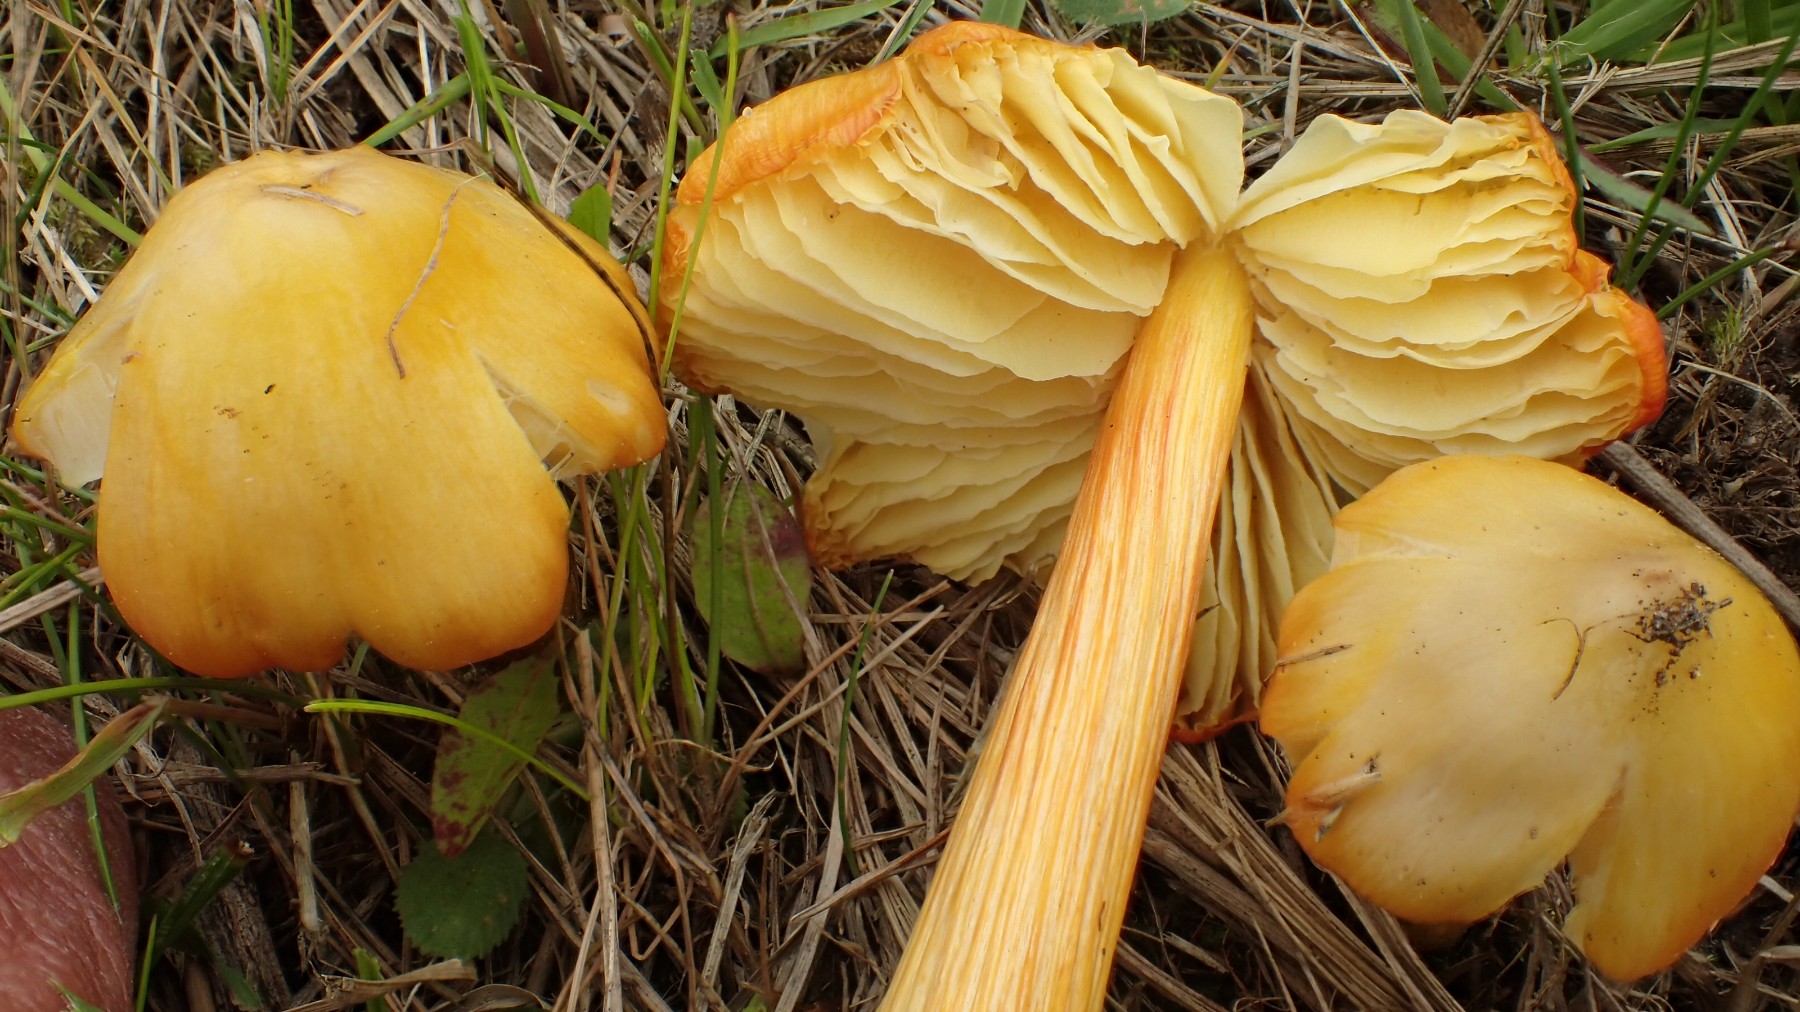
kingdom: Fungi
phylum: Basidiomycota
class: Agaricomycetes
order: Agaricales
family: Hygrophoraceae
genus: Hygrocybe
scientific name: Hygrocybe acutoconica
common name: Konrads vokshat
